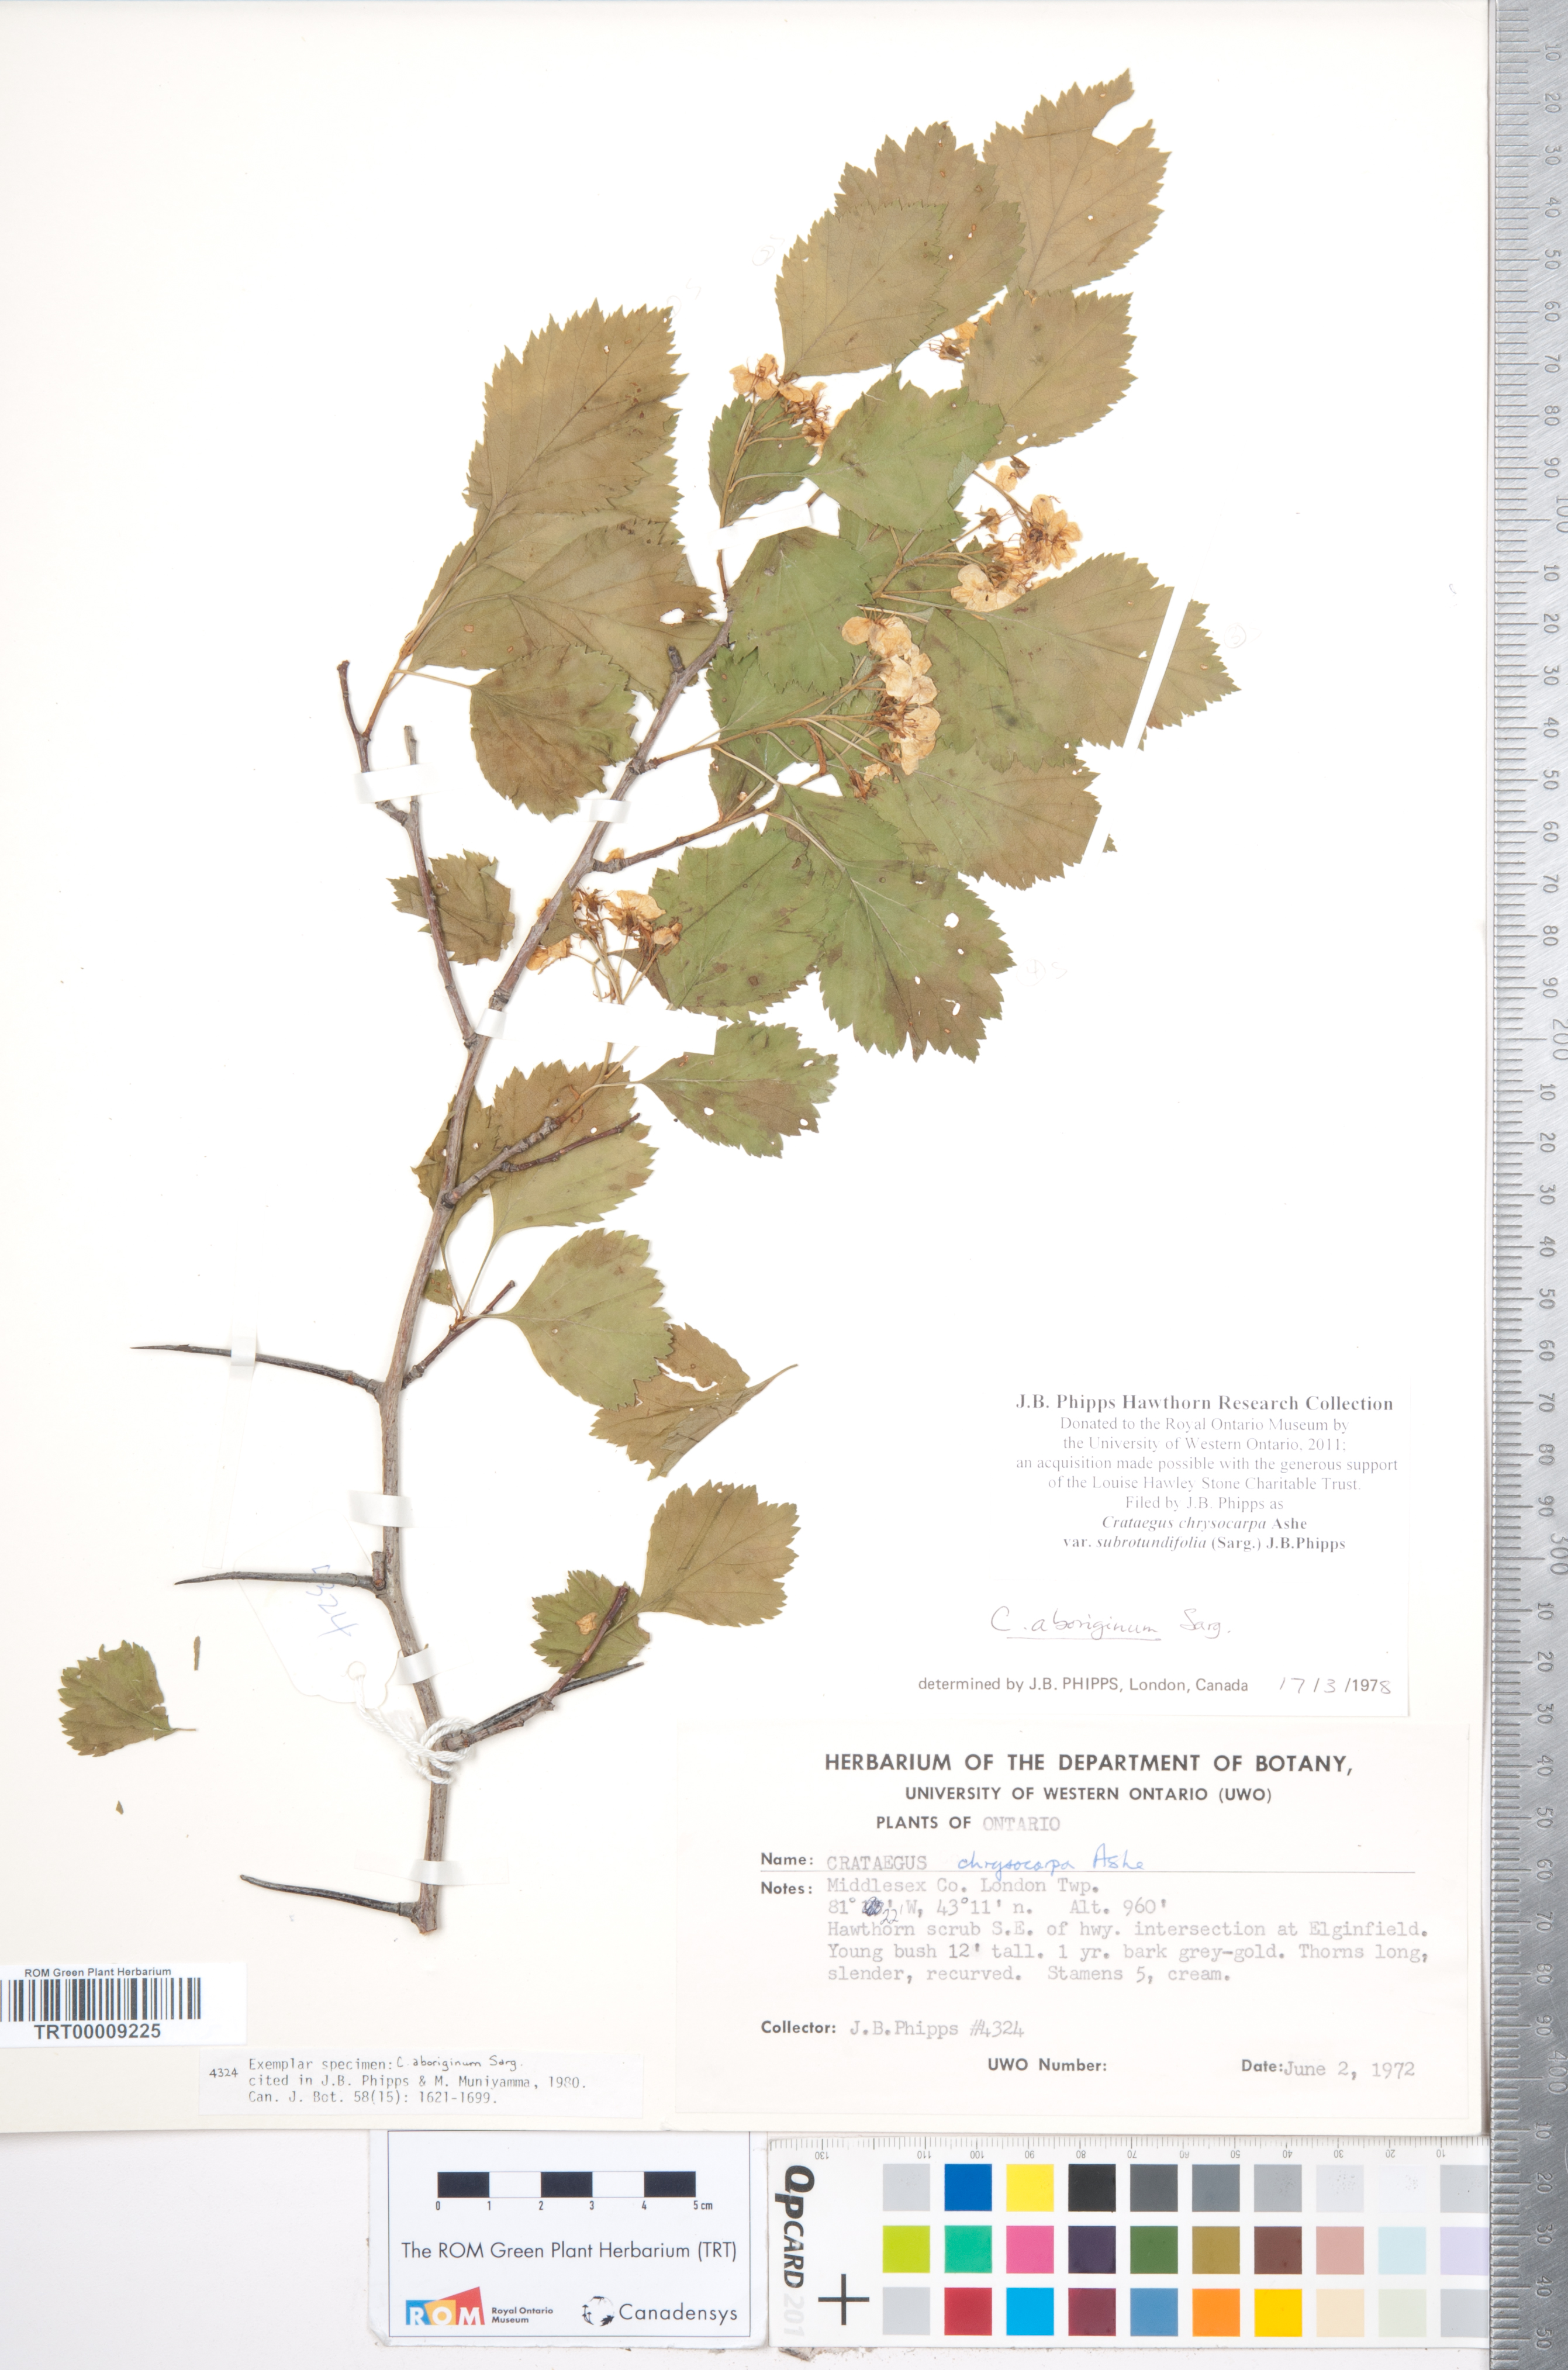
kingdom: Plantae
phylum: Tracheophyta
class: Magnoliopsida
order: Rosales
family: Rosaceae
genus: Crataegus
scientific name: Crataegus chrysocarpa
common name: Fire-berry hawthorn
